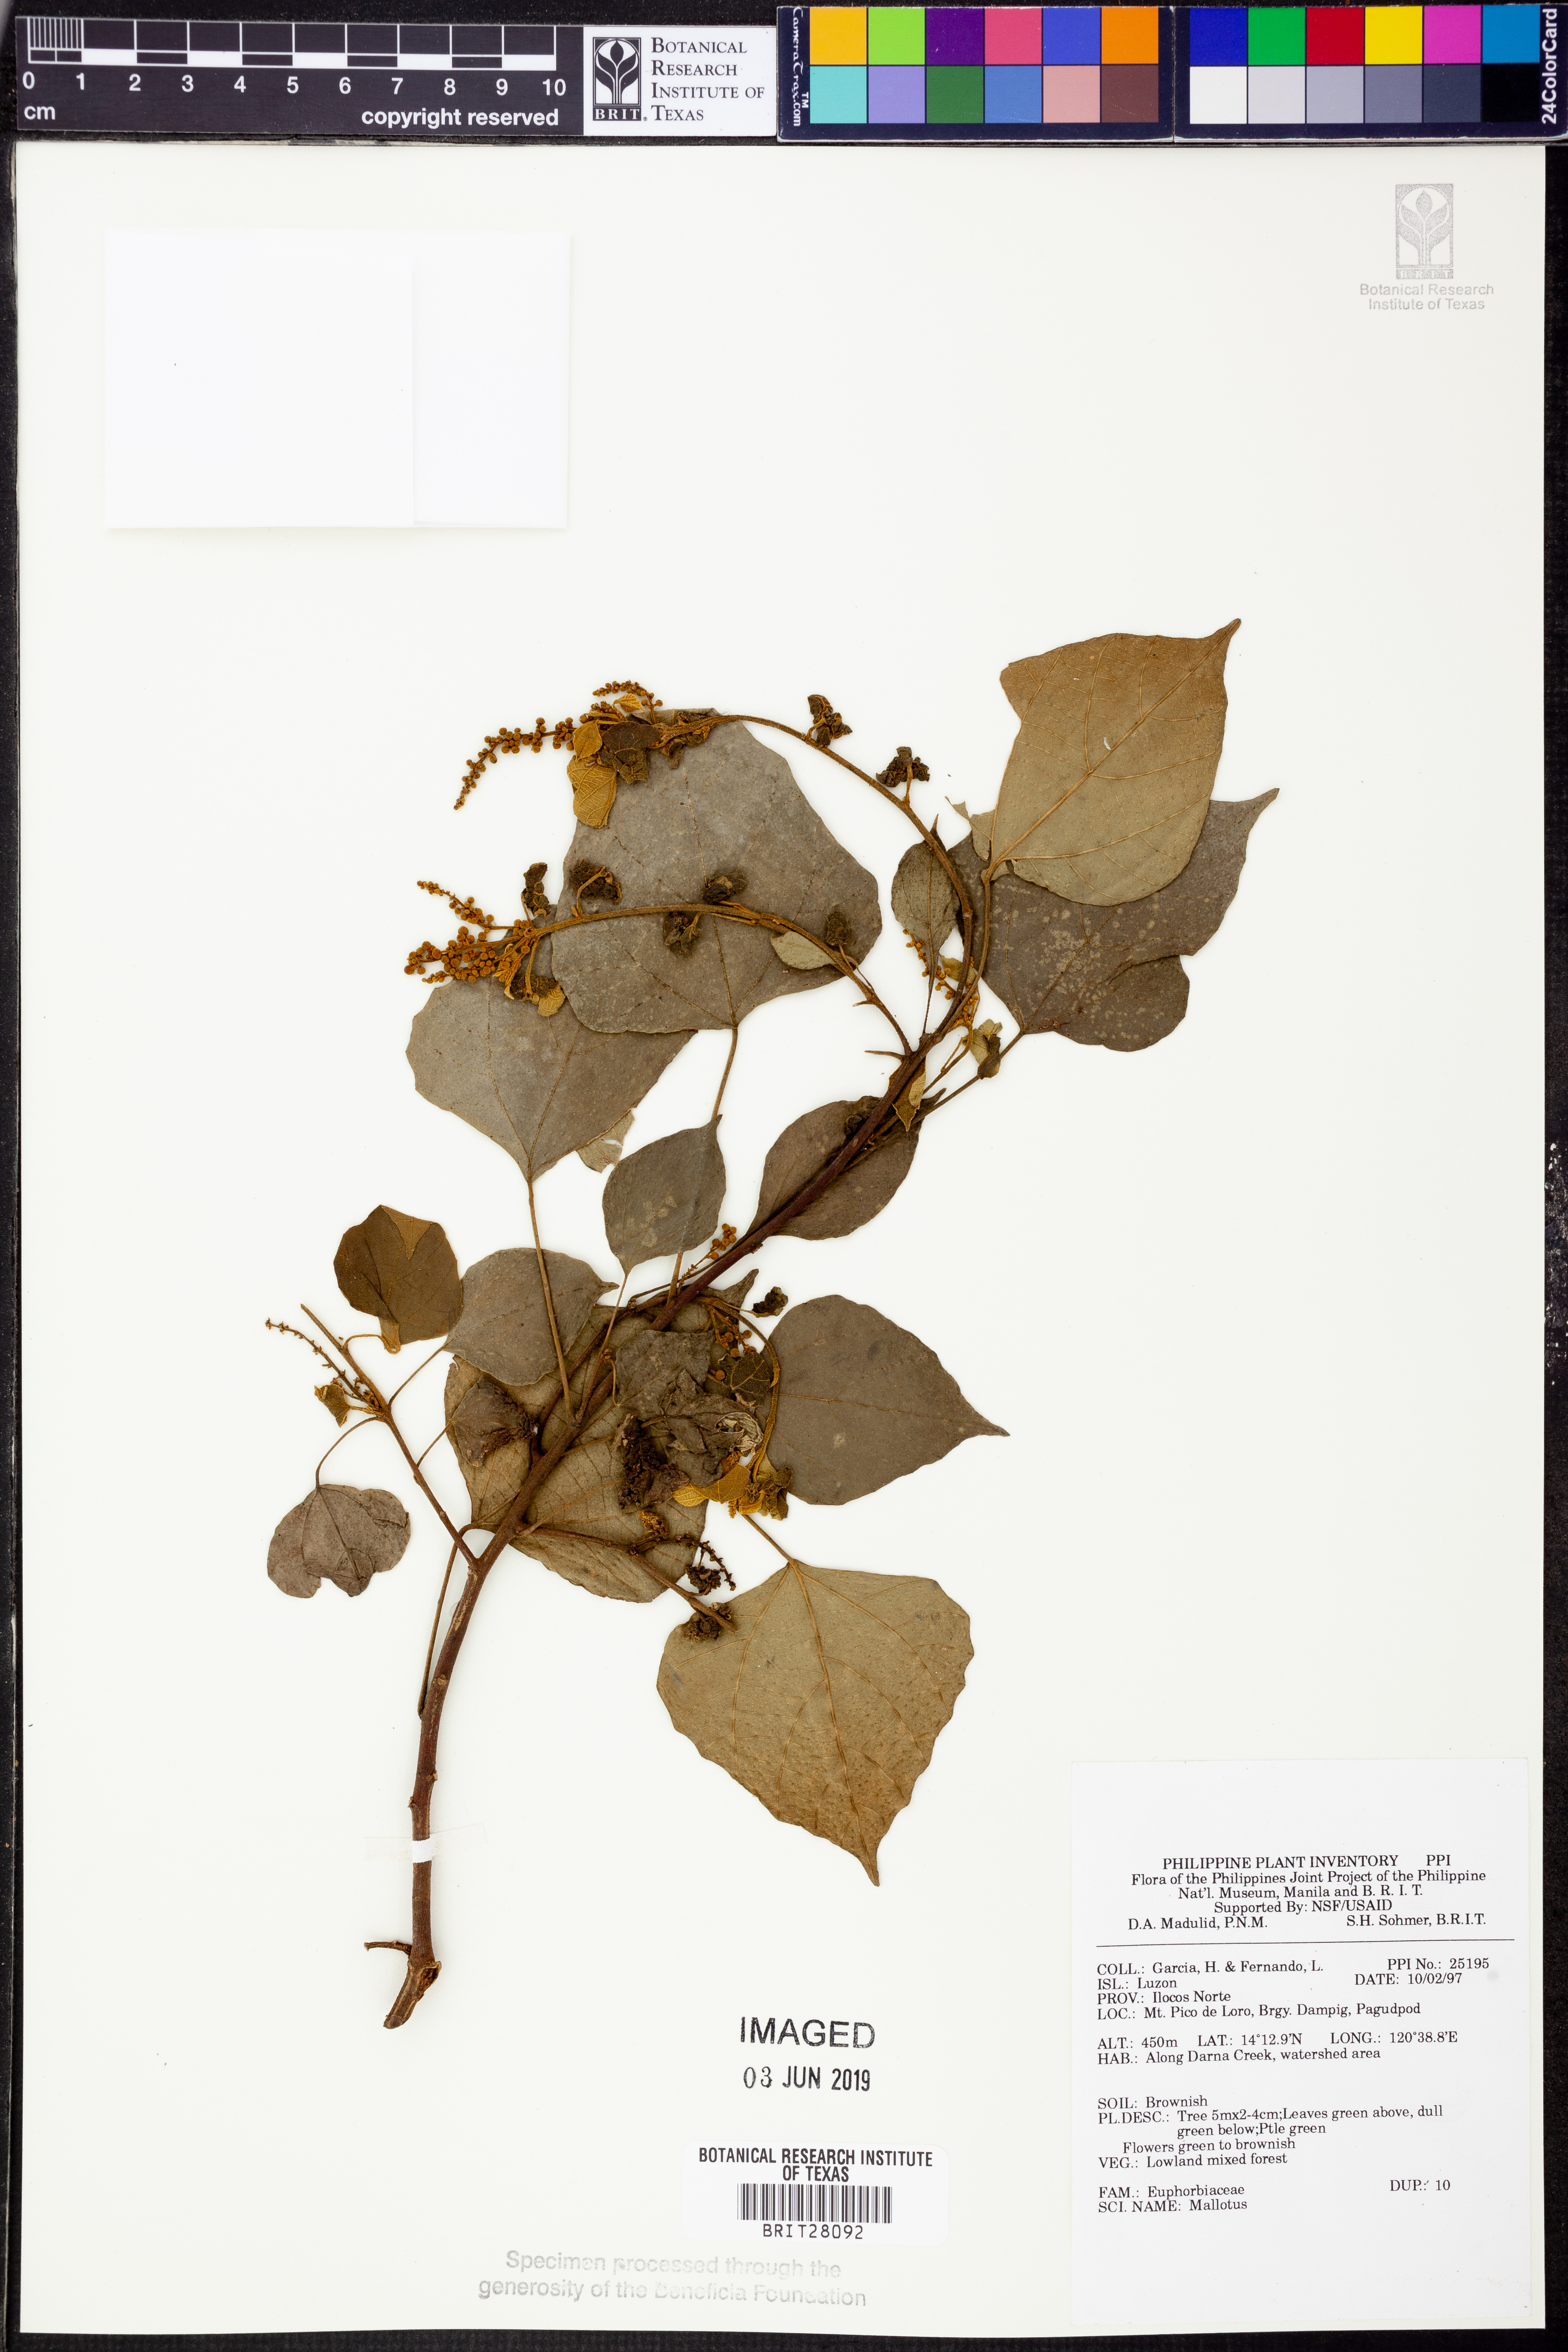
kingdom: Plantae
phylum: Tracheophyta
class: Magnoliopsida
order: Malpighiales
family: Euphorbiaceae
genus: Mallotus
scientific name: Mallotus
